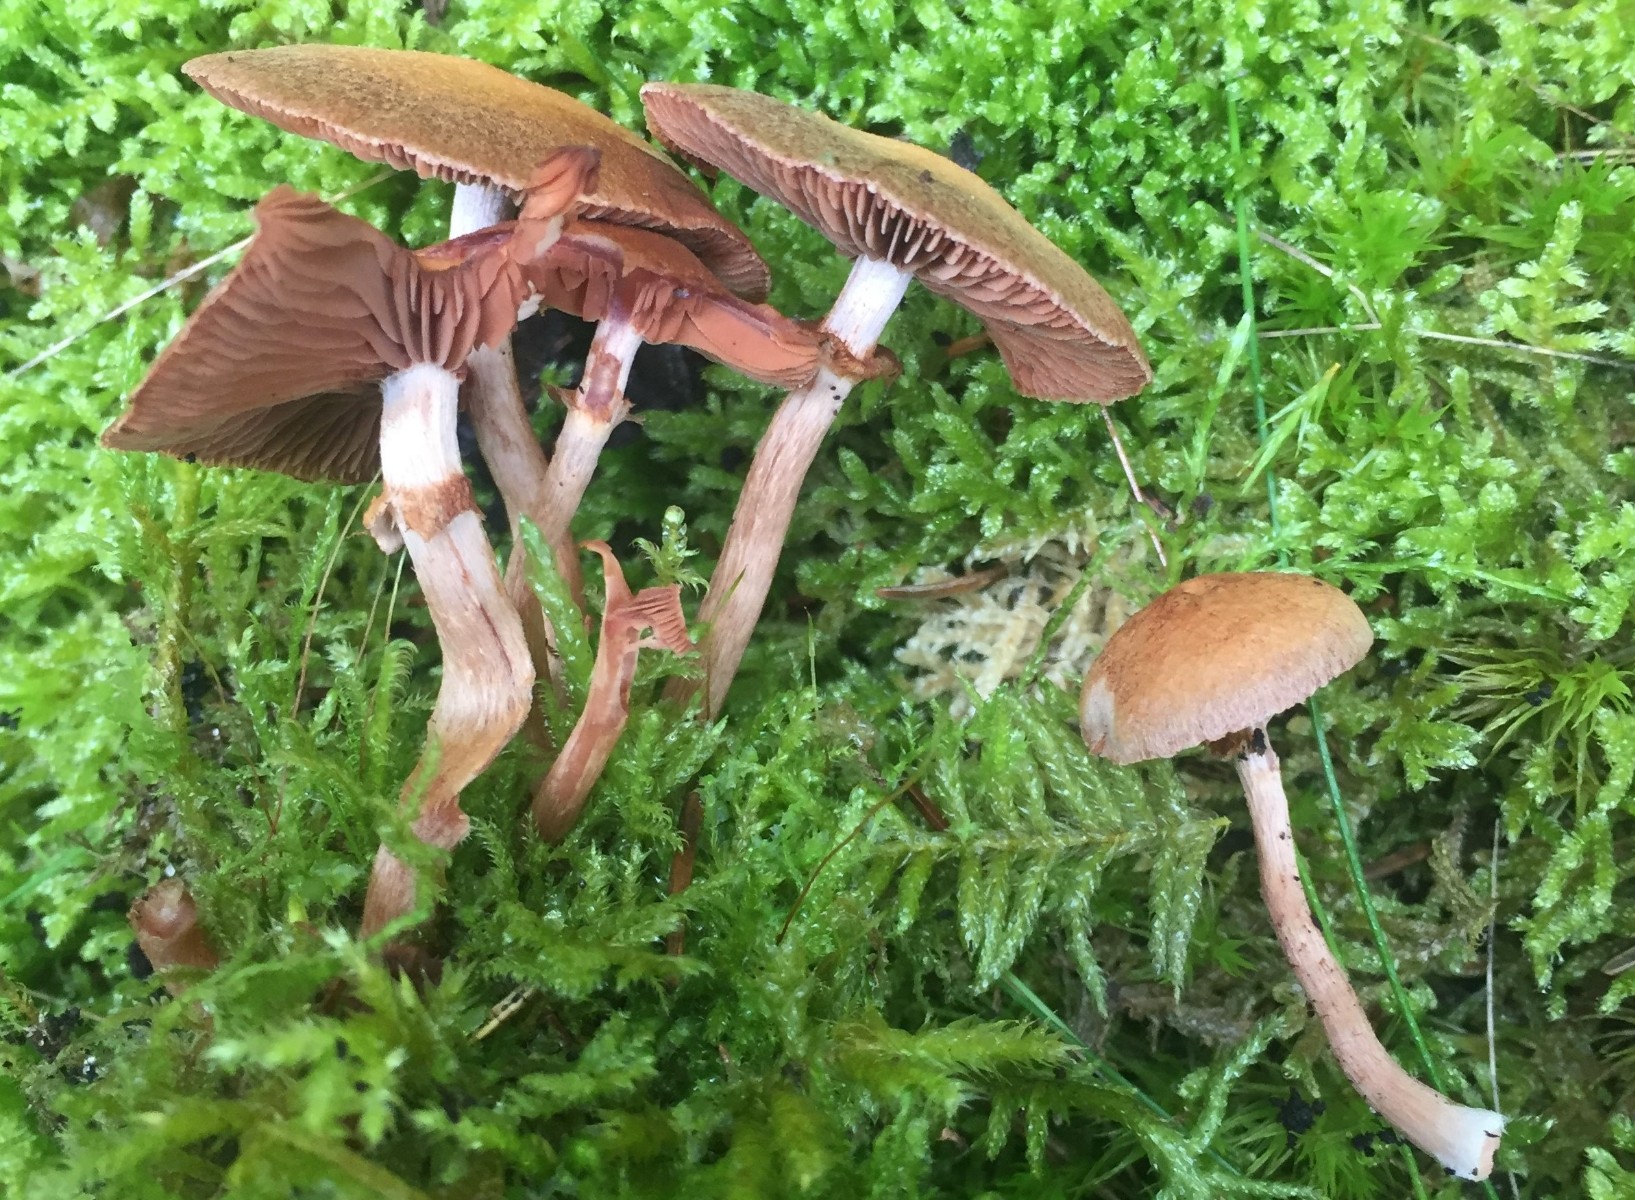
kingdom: Fungi
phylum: Basidiomycota
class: Agaricomycetes
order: Agaricales
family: Tubariaceae
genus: Tubaria
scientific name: Tubaria confragosa
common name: ring-fnughat
